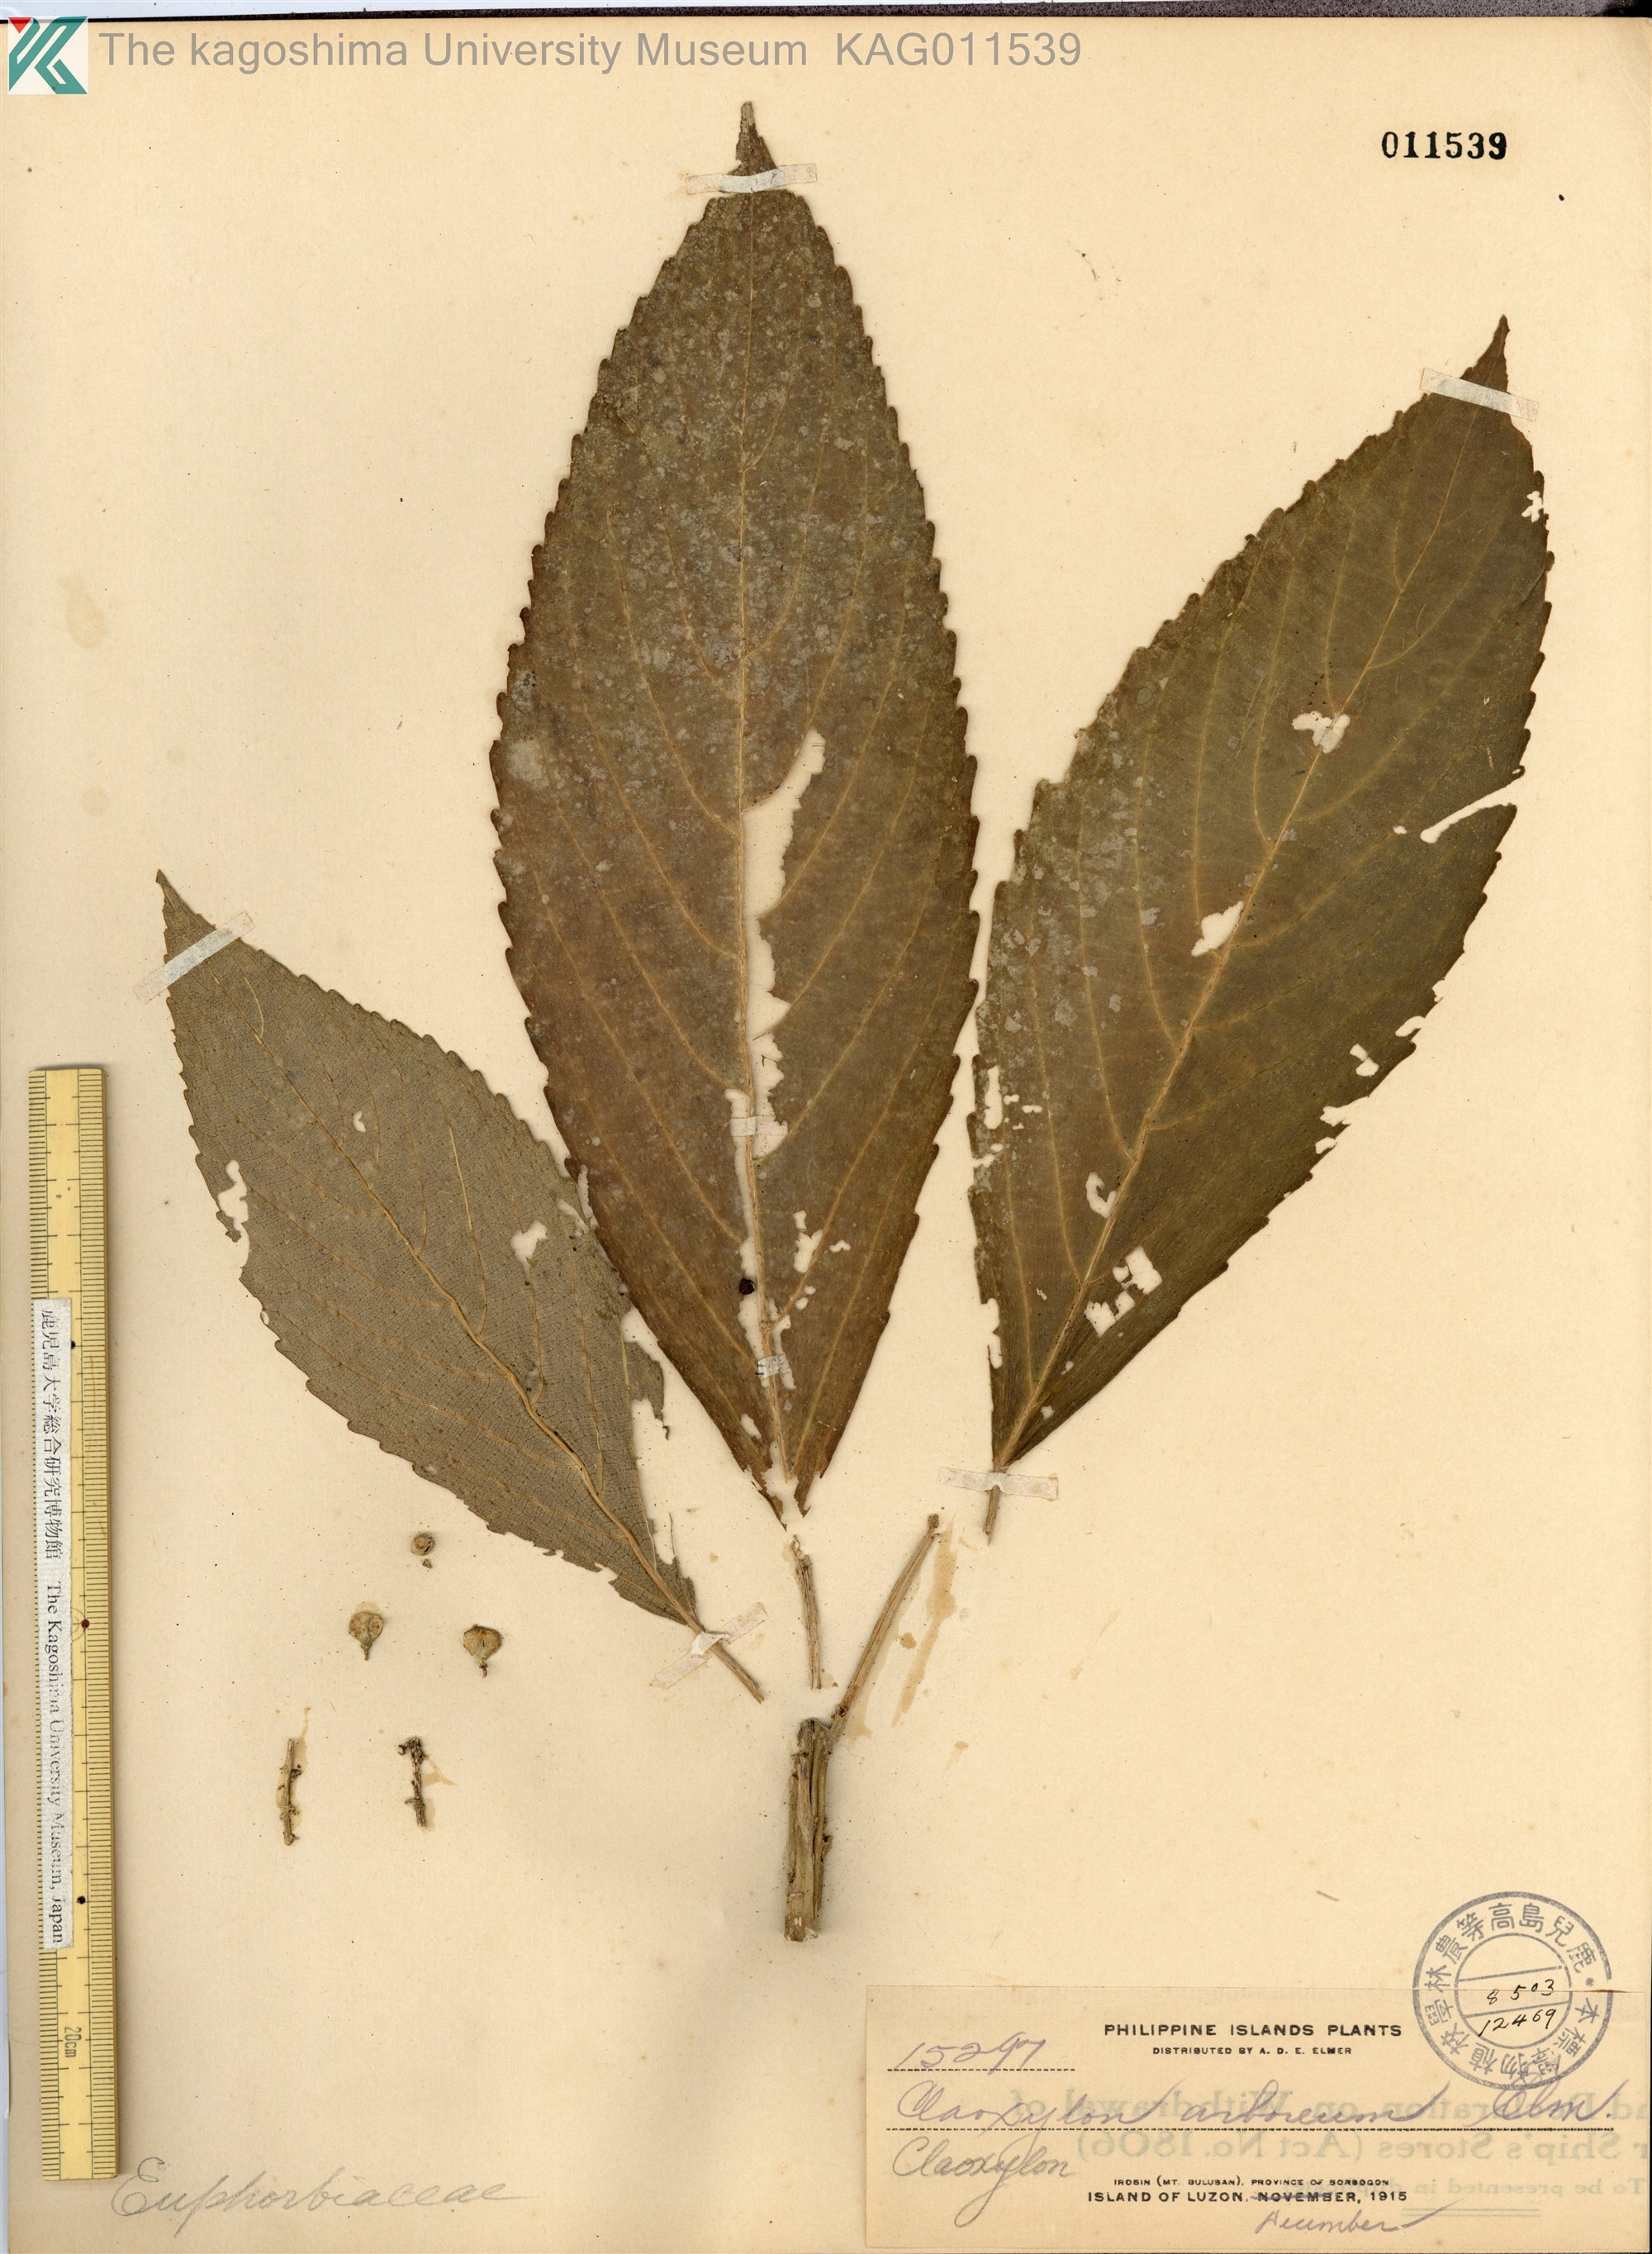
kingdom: Plantae
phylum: Tracheophyta
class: Magnoliopsida
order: Malpighiales
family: Euphorbiaceae
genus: Claoxylon
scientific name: Claoxylon arboreum
